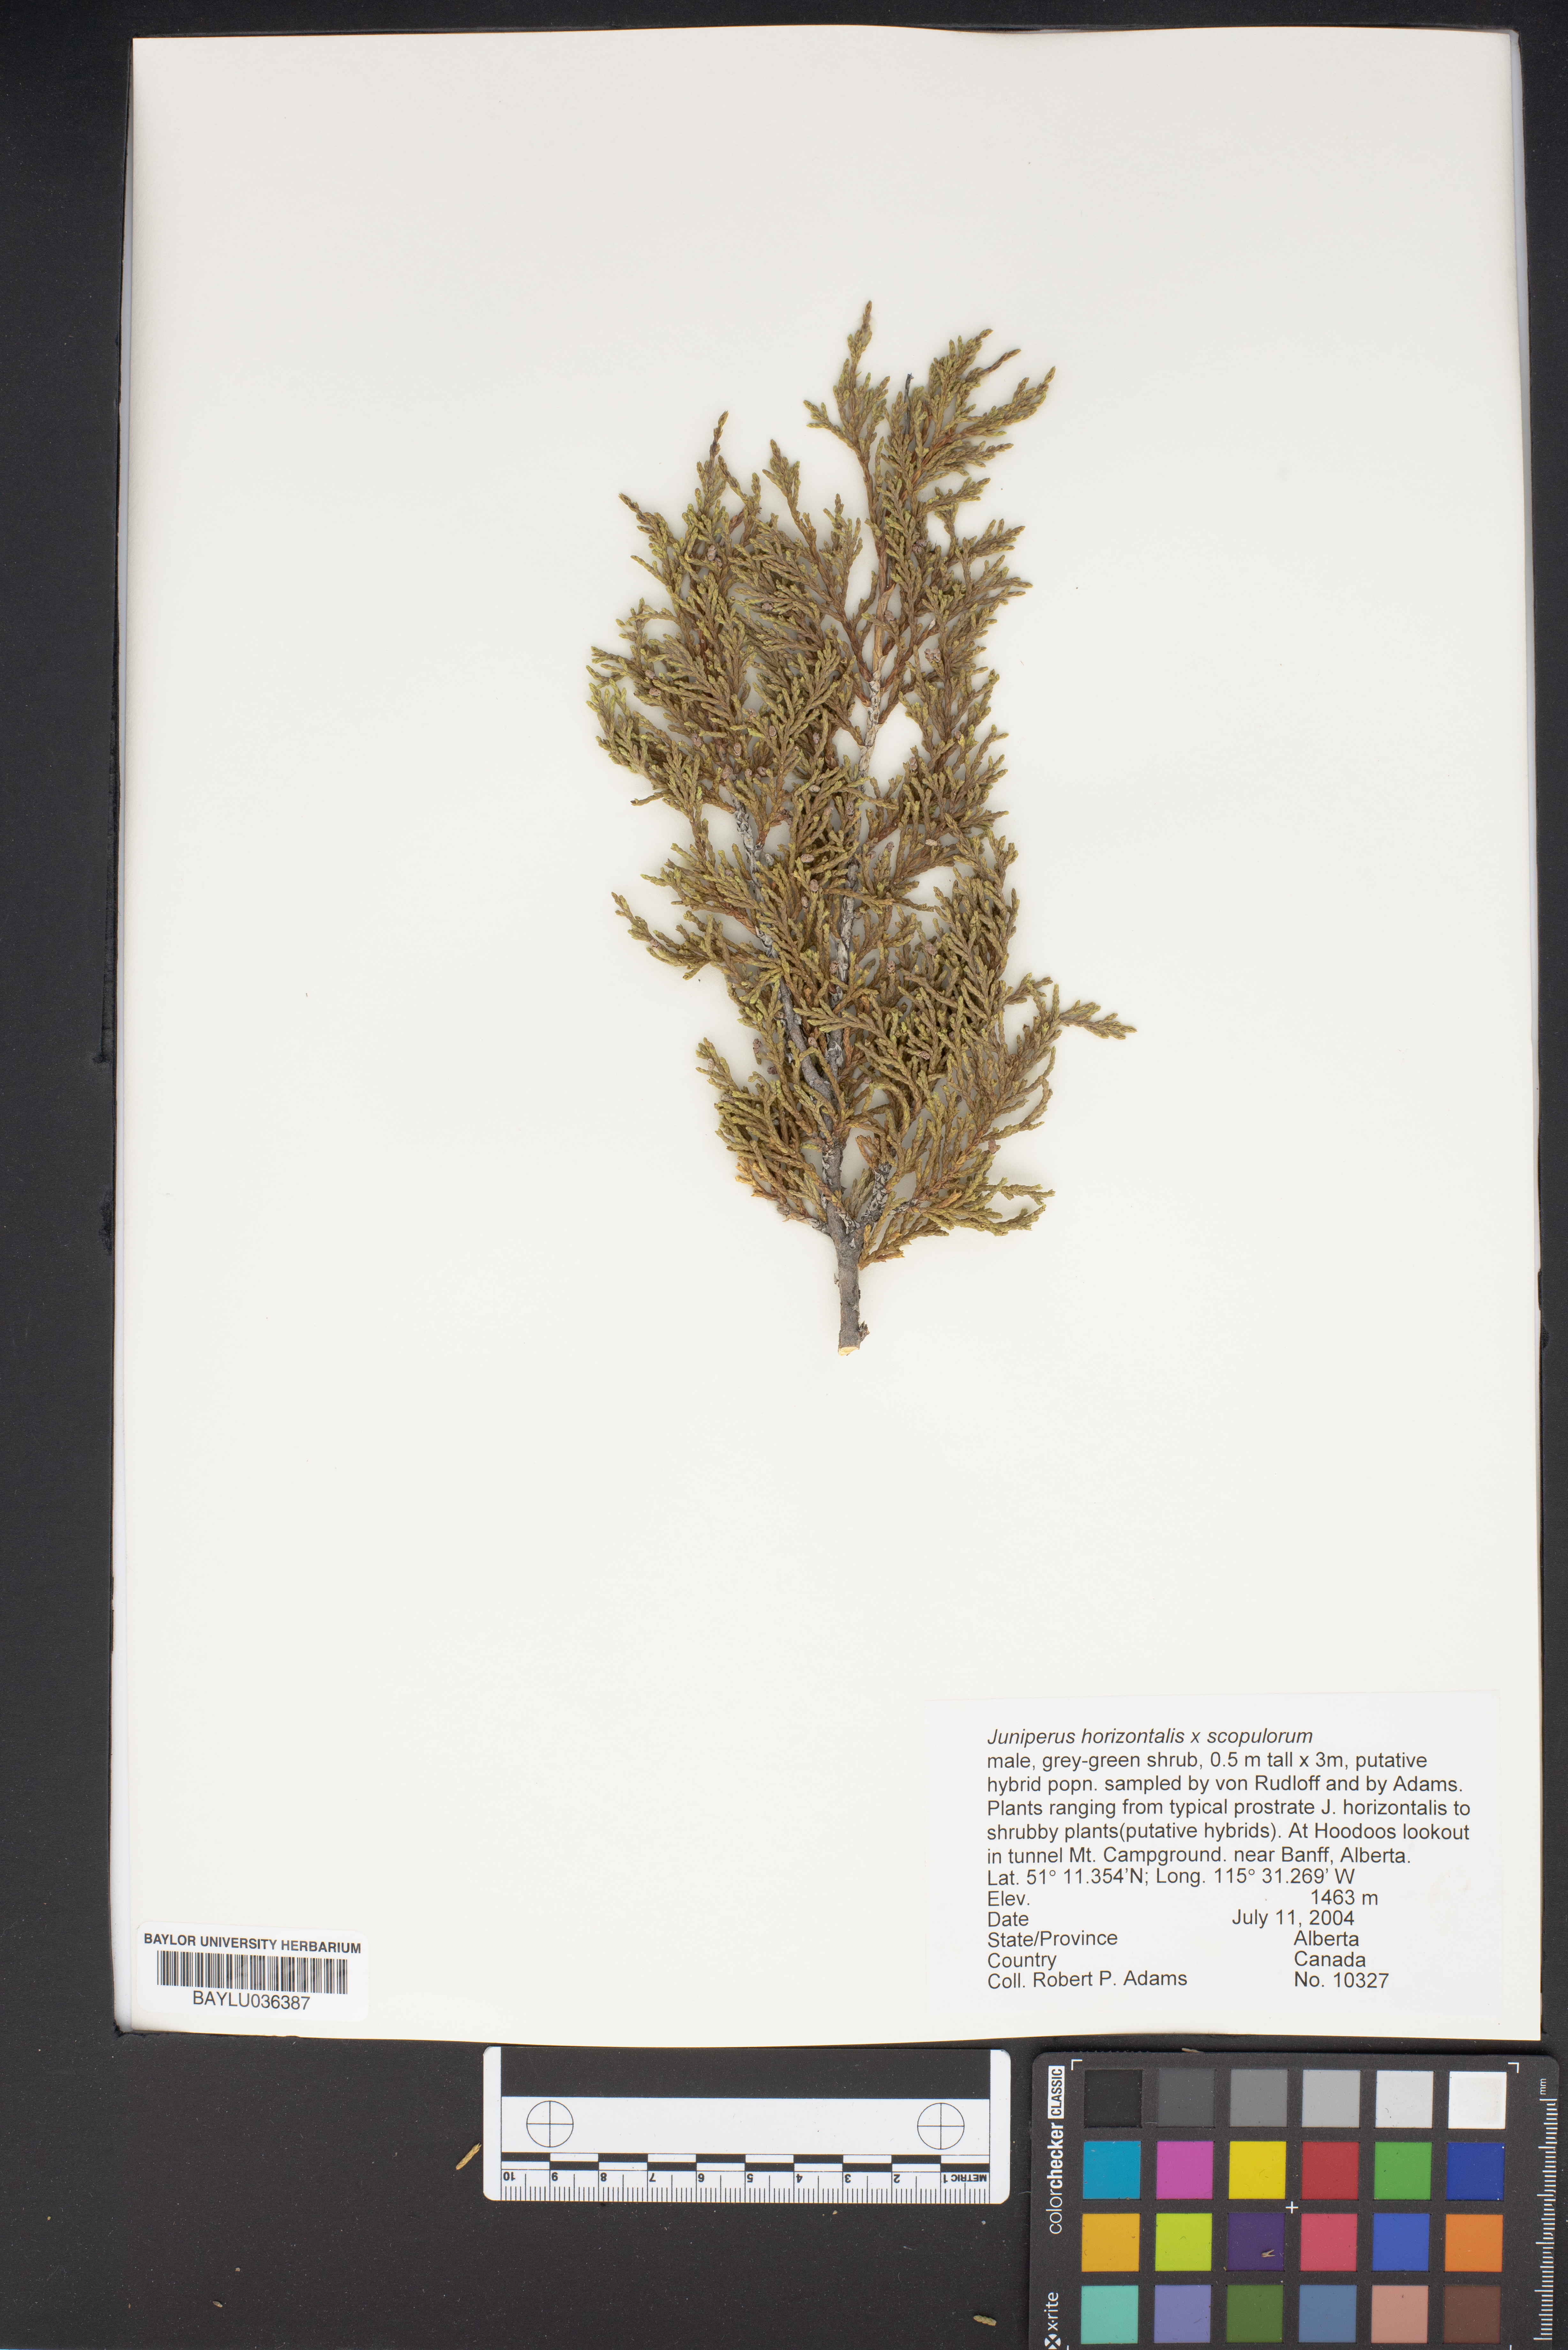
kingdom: Plantae
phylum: Tracheophyta
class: Pinopsida
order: Pinales
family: Cupressaceae
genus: Juniperus
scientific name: Juniperus horizontalis
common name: Creeping juniper
